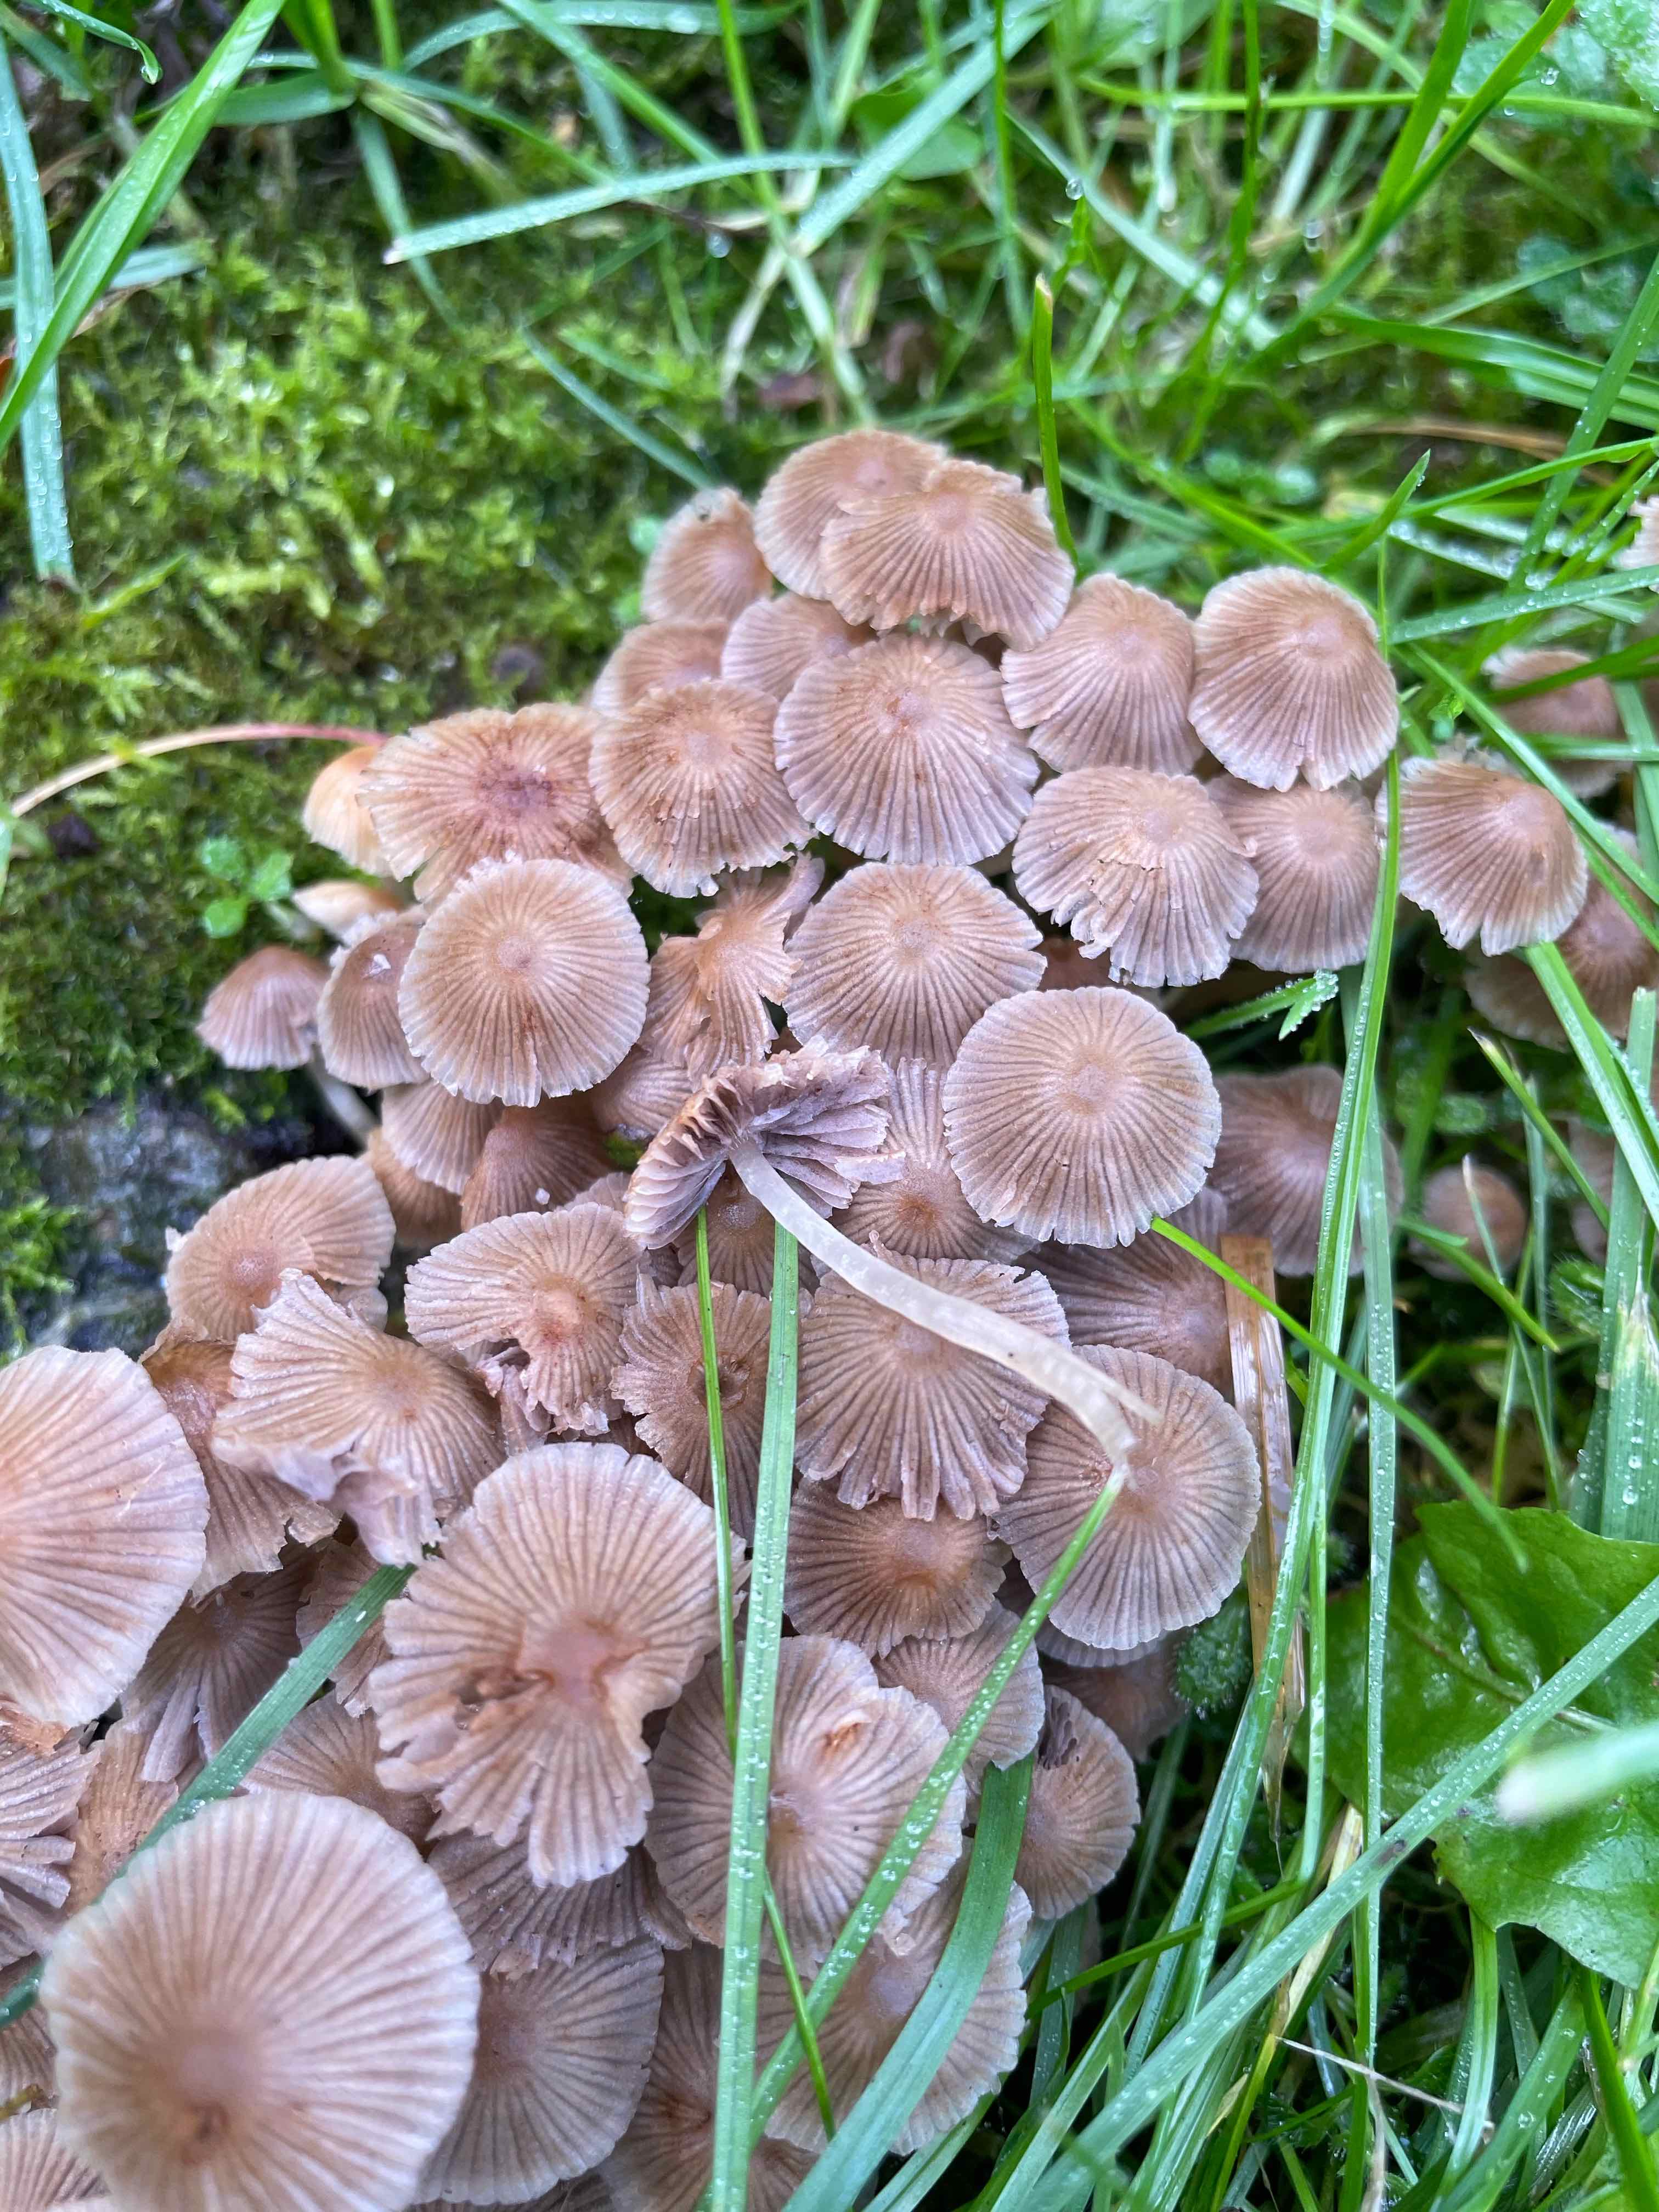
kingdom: Fungi
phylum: Basidiomycota
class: Agaricomycetes
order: Agaricales
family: Psathyrellaceae
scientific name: Psathyrellaceae
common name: mørkhatfamilien
